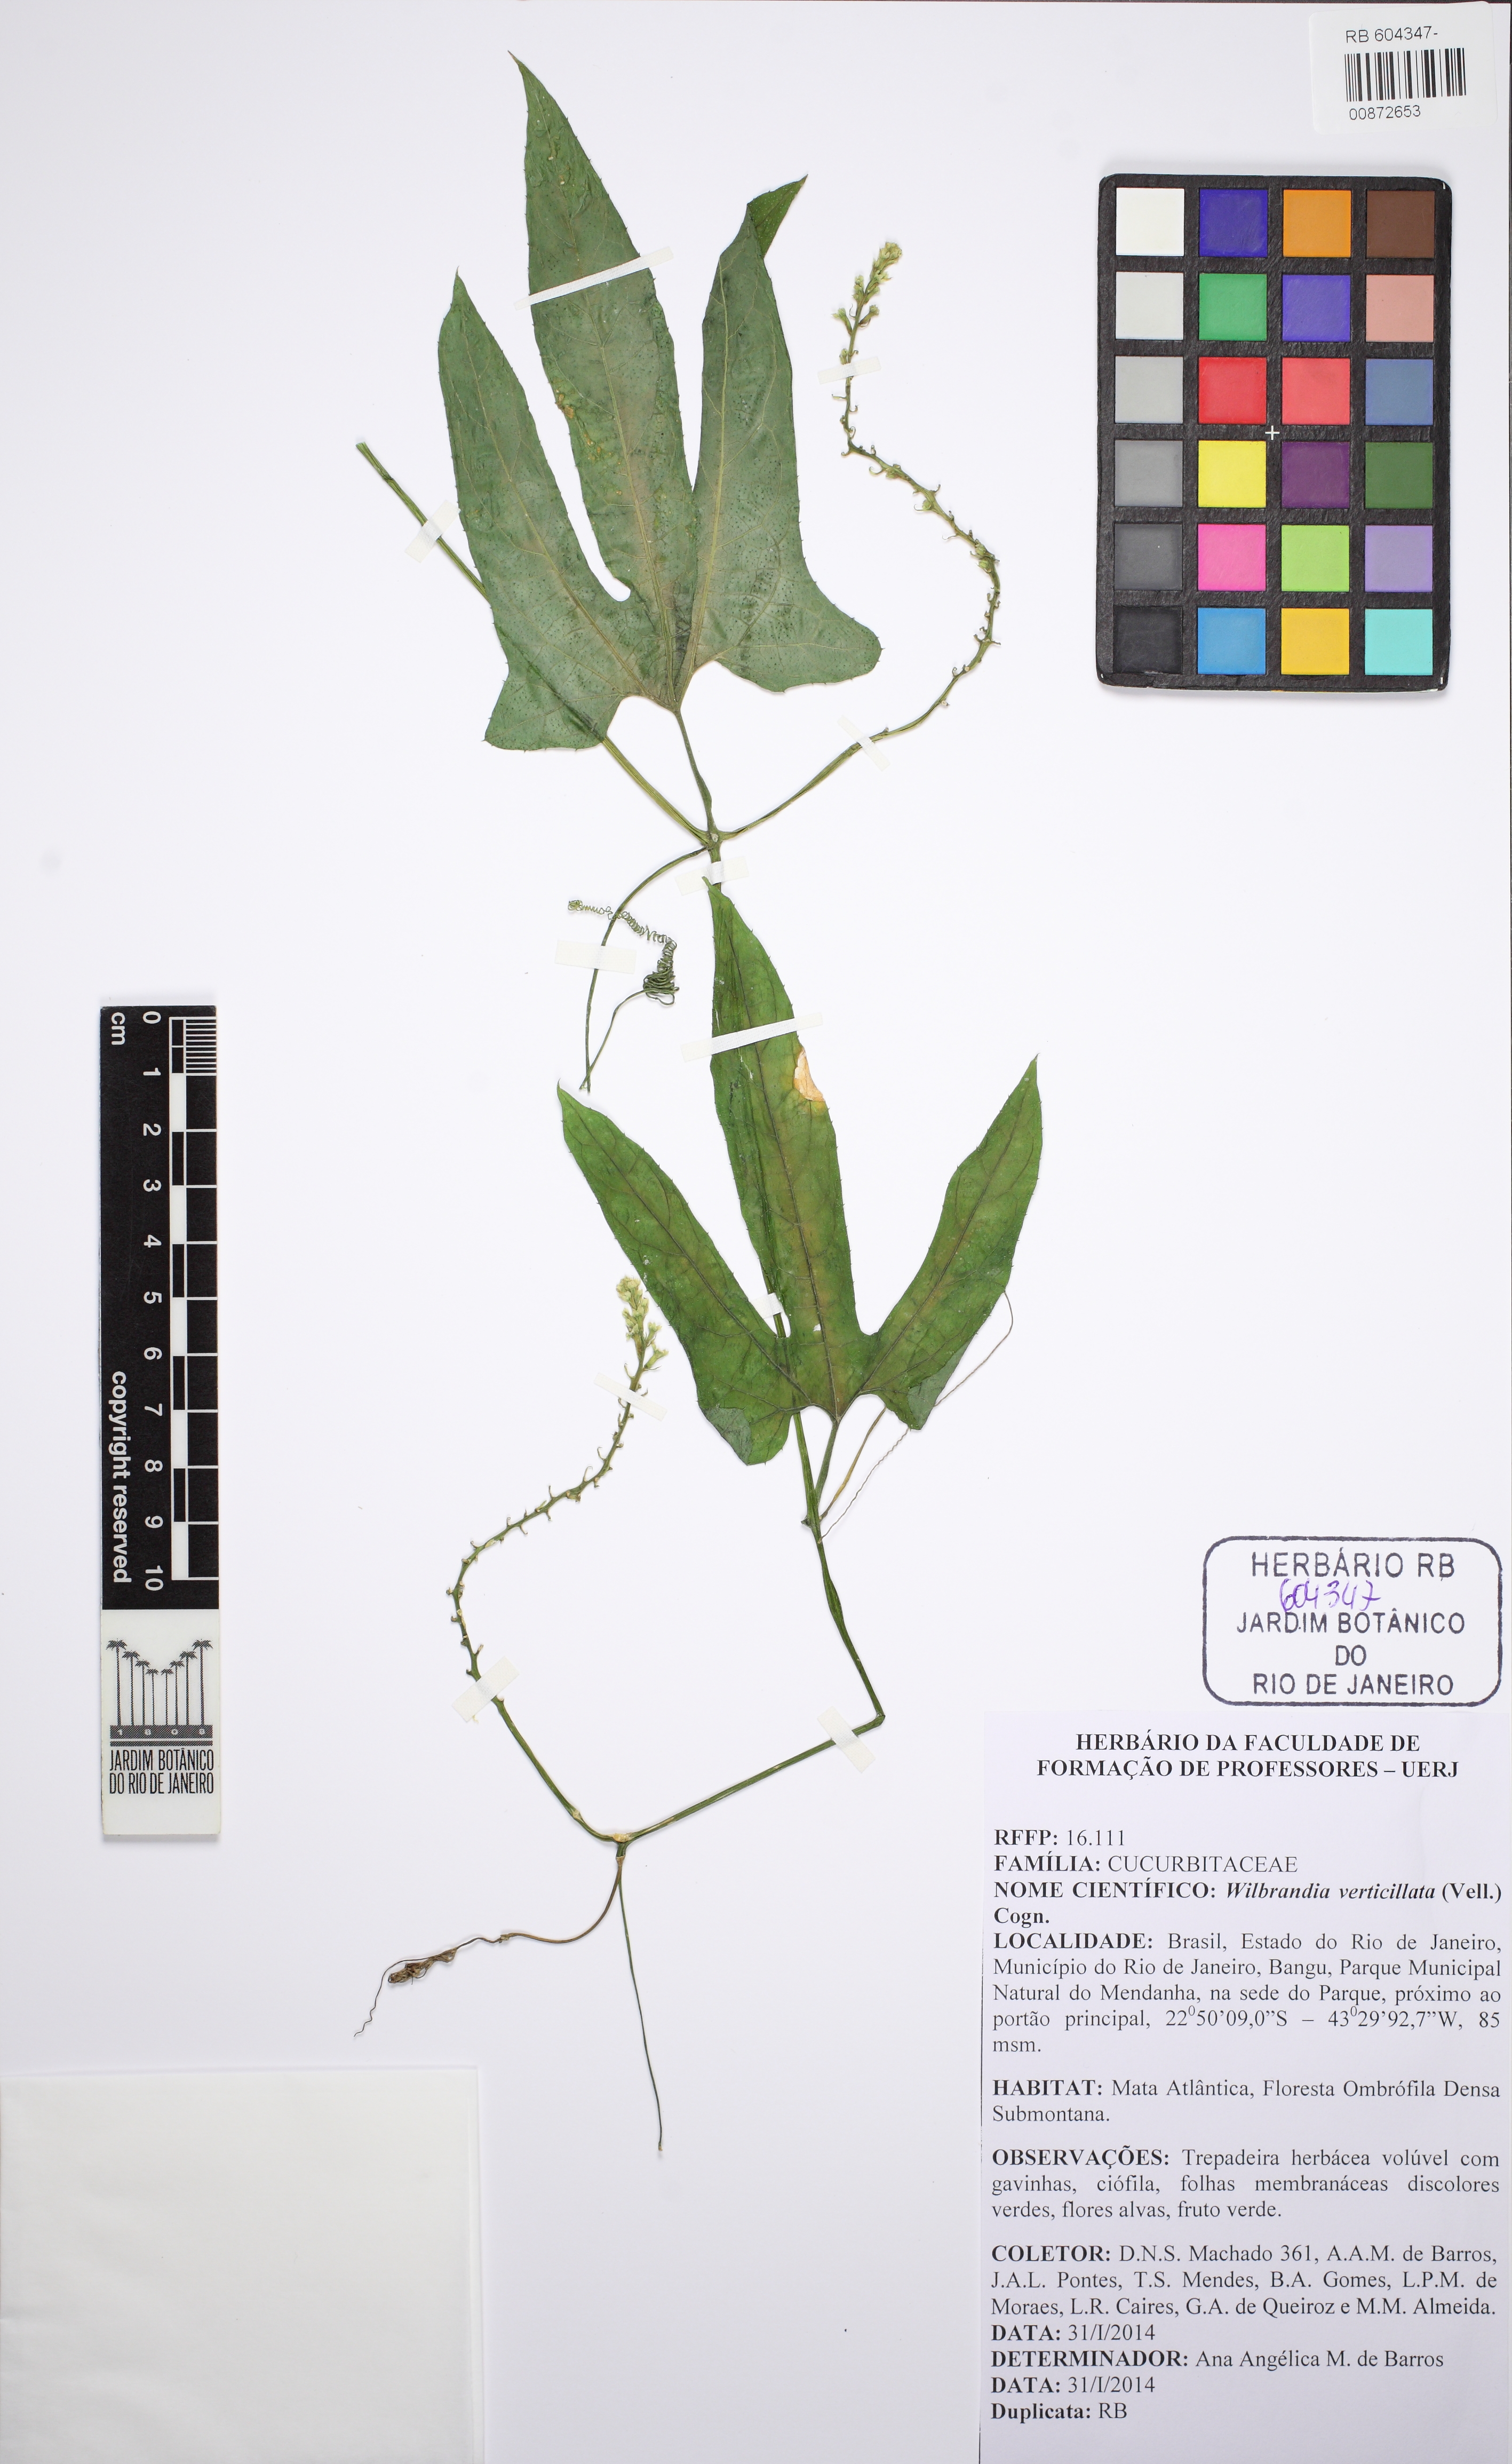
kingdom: Plantae
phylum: Tracheophyta
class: Magnoliopsida
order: Cucurbitales
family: Cucurbitaceae
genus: Wilbrandia
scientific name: Wilbrandia verticillata
